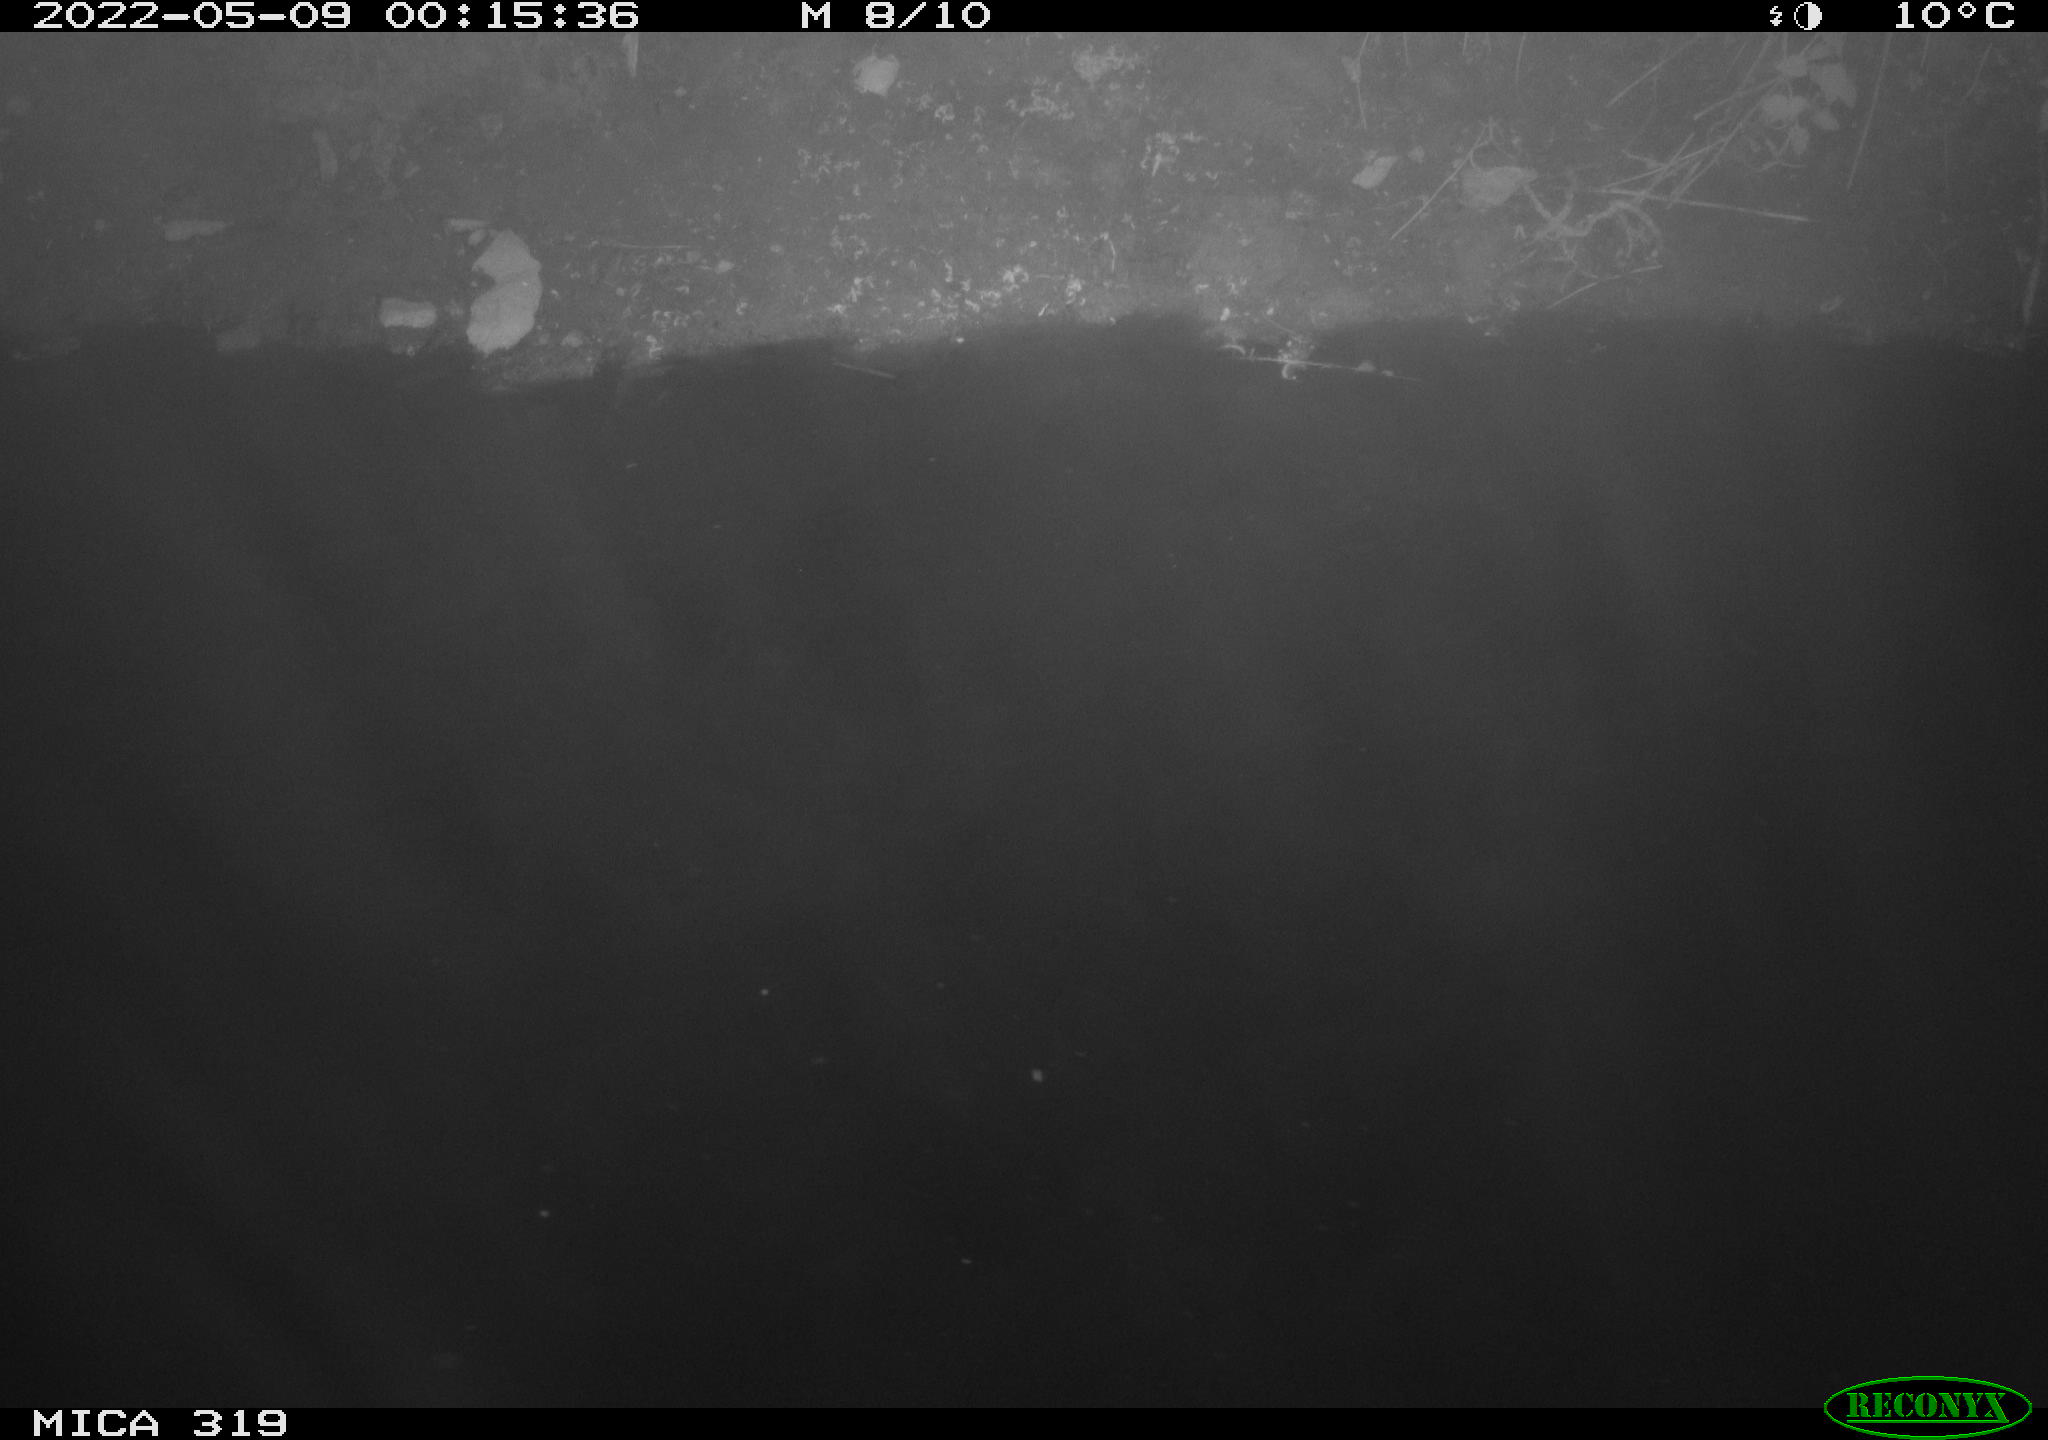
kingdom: Animalia
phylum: Chordata
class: Aves
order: Anseriformes
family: Anatidae
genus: Anas
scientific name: Anas platyrhynchos
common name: Mallard
